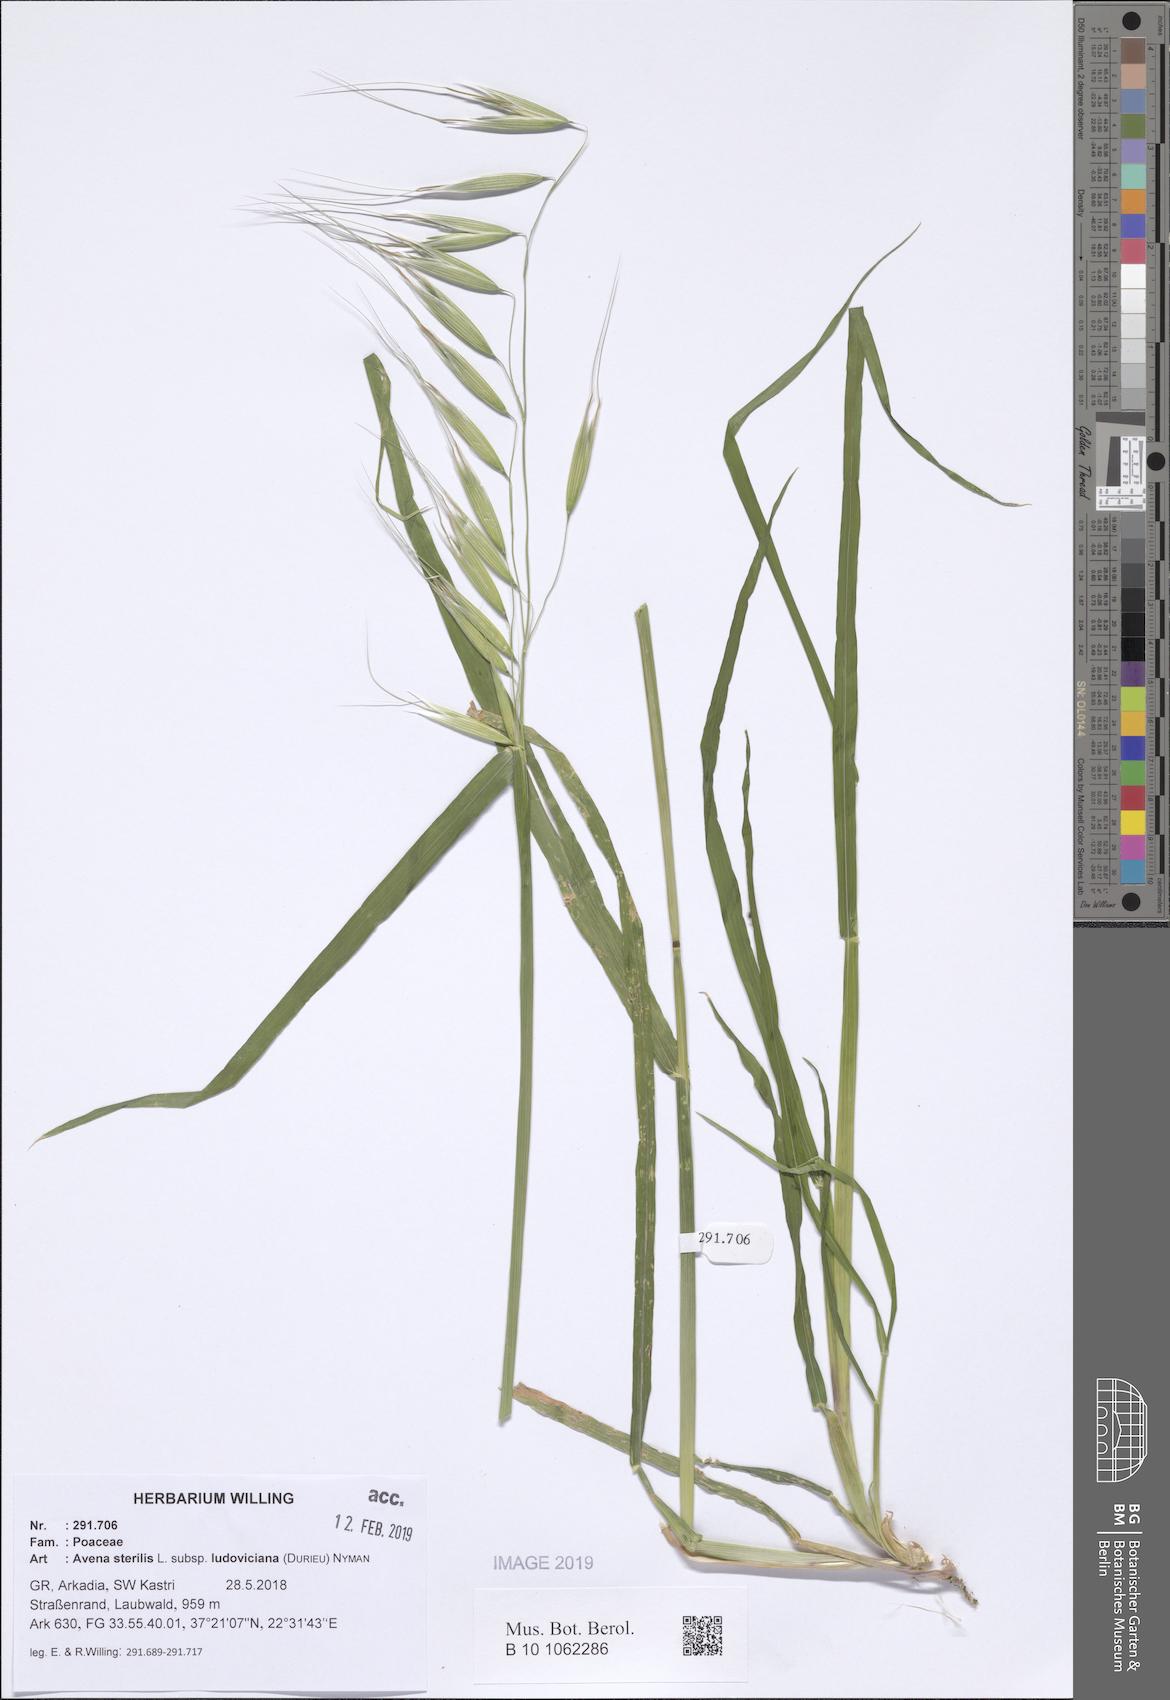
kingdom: Plantae
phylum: Tracheophyta
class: Liliopsida
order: Poales
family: Poaceae
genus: Avena
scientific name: Avena sterilis
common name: Animated oat
